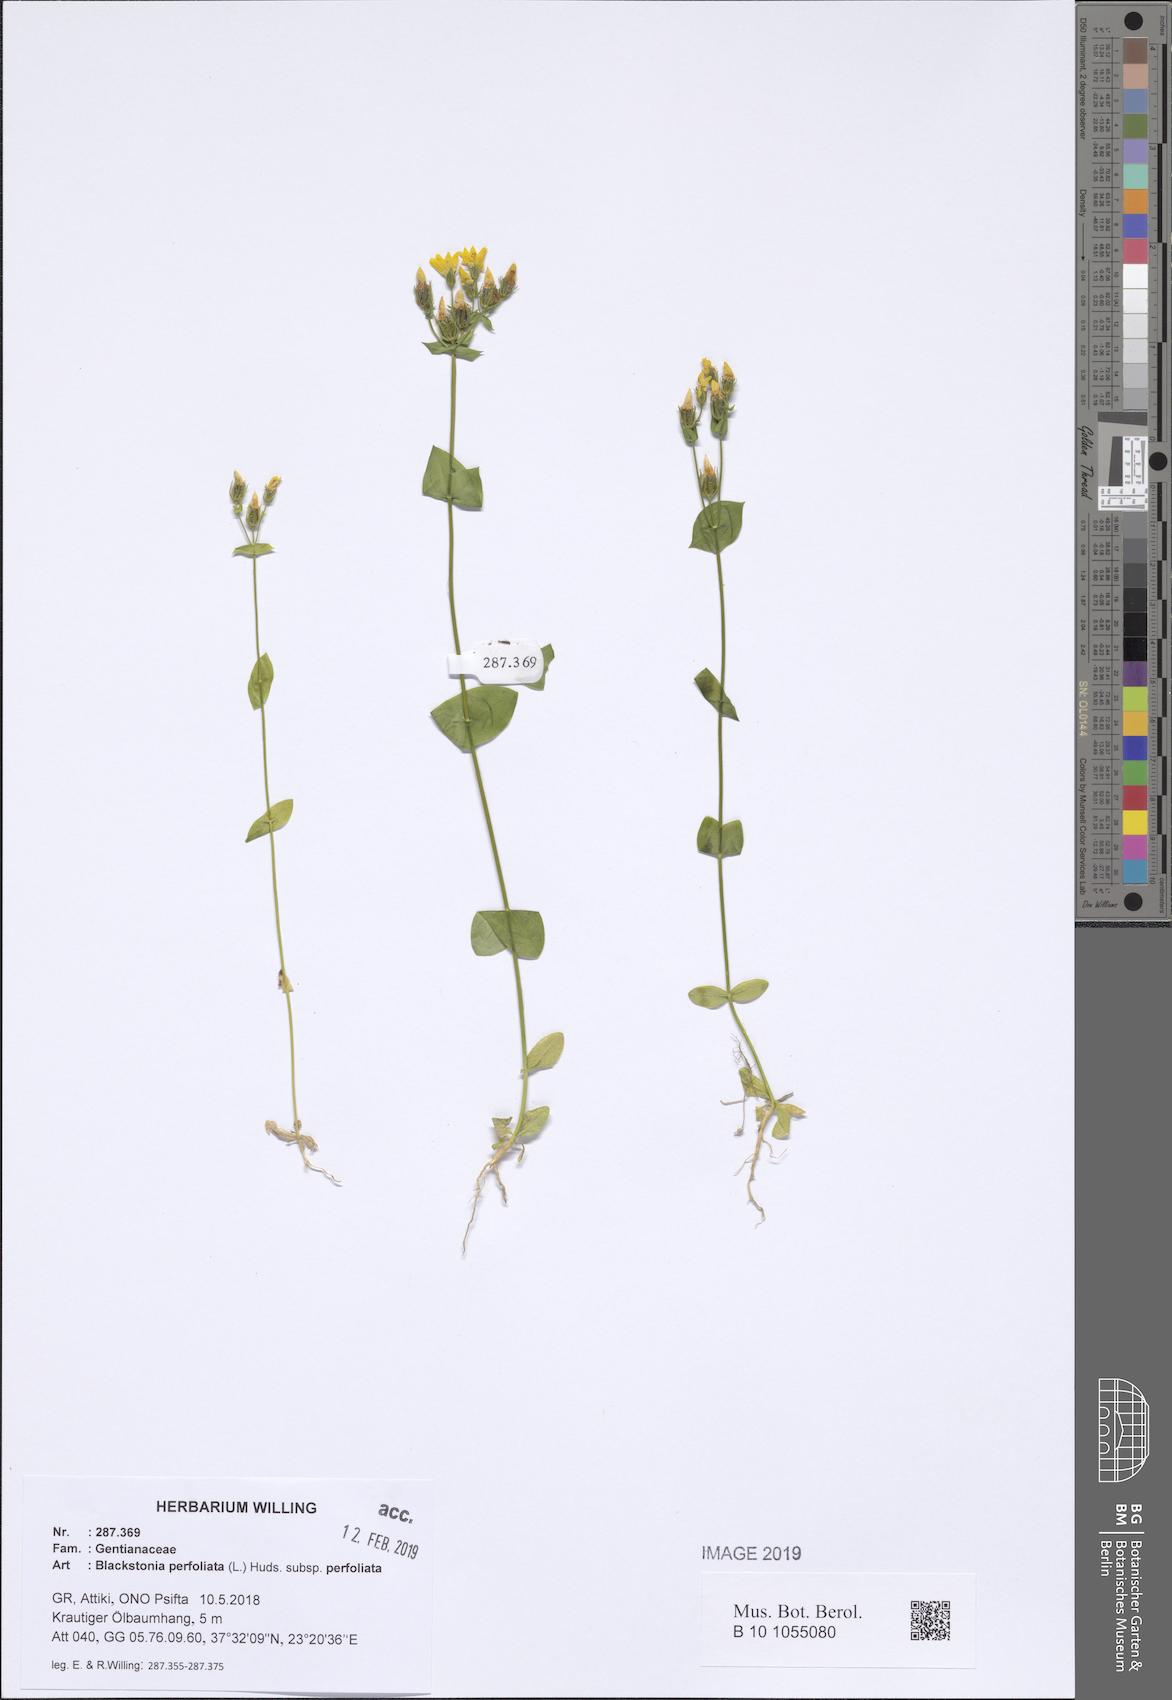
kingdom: Plantae
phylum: Tracheophyta
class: Magnoliopsida
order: Gentianales
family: Gentianaceae
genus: Blackstonia
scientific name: Blackstonia perfoliata
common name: Yellow-wort
